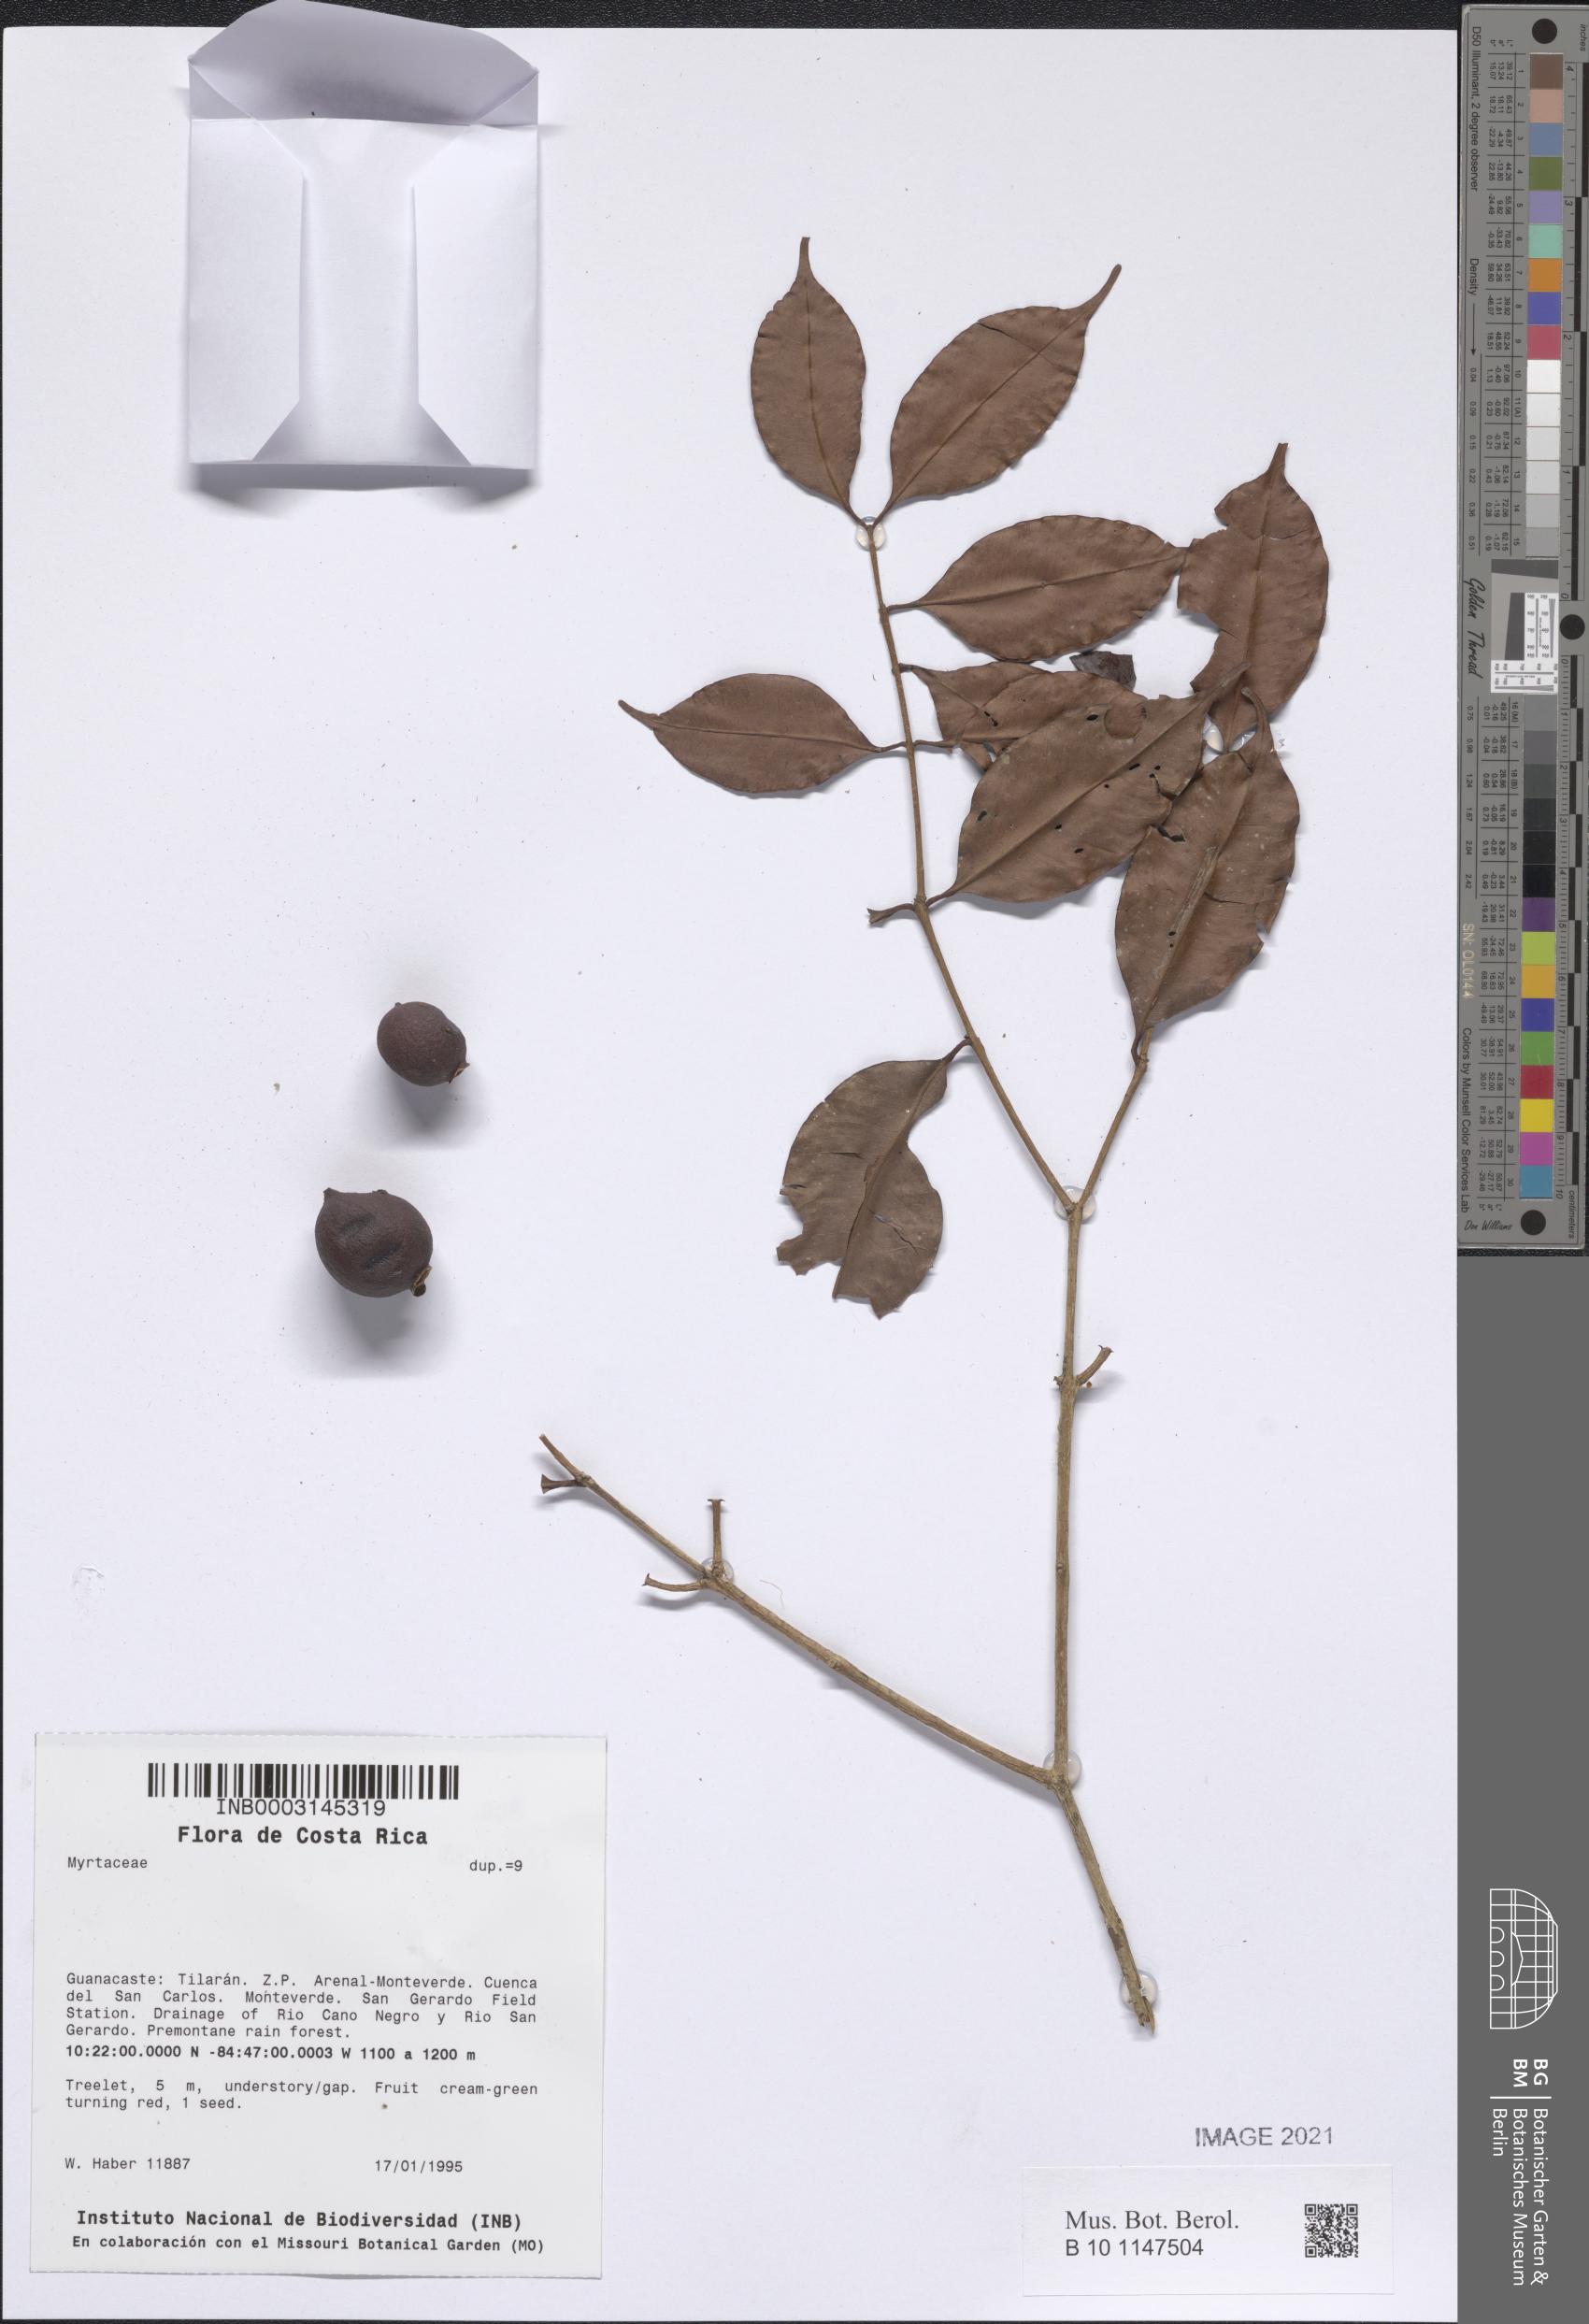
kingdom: Plantae
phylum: Tracheophyta
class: Magnoliopsida
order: Myrtales
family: Myrtaceae
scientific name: Myrtaceae
